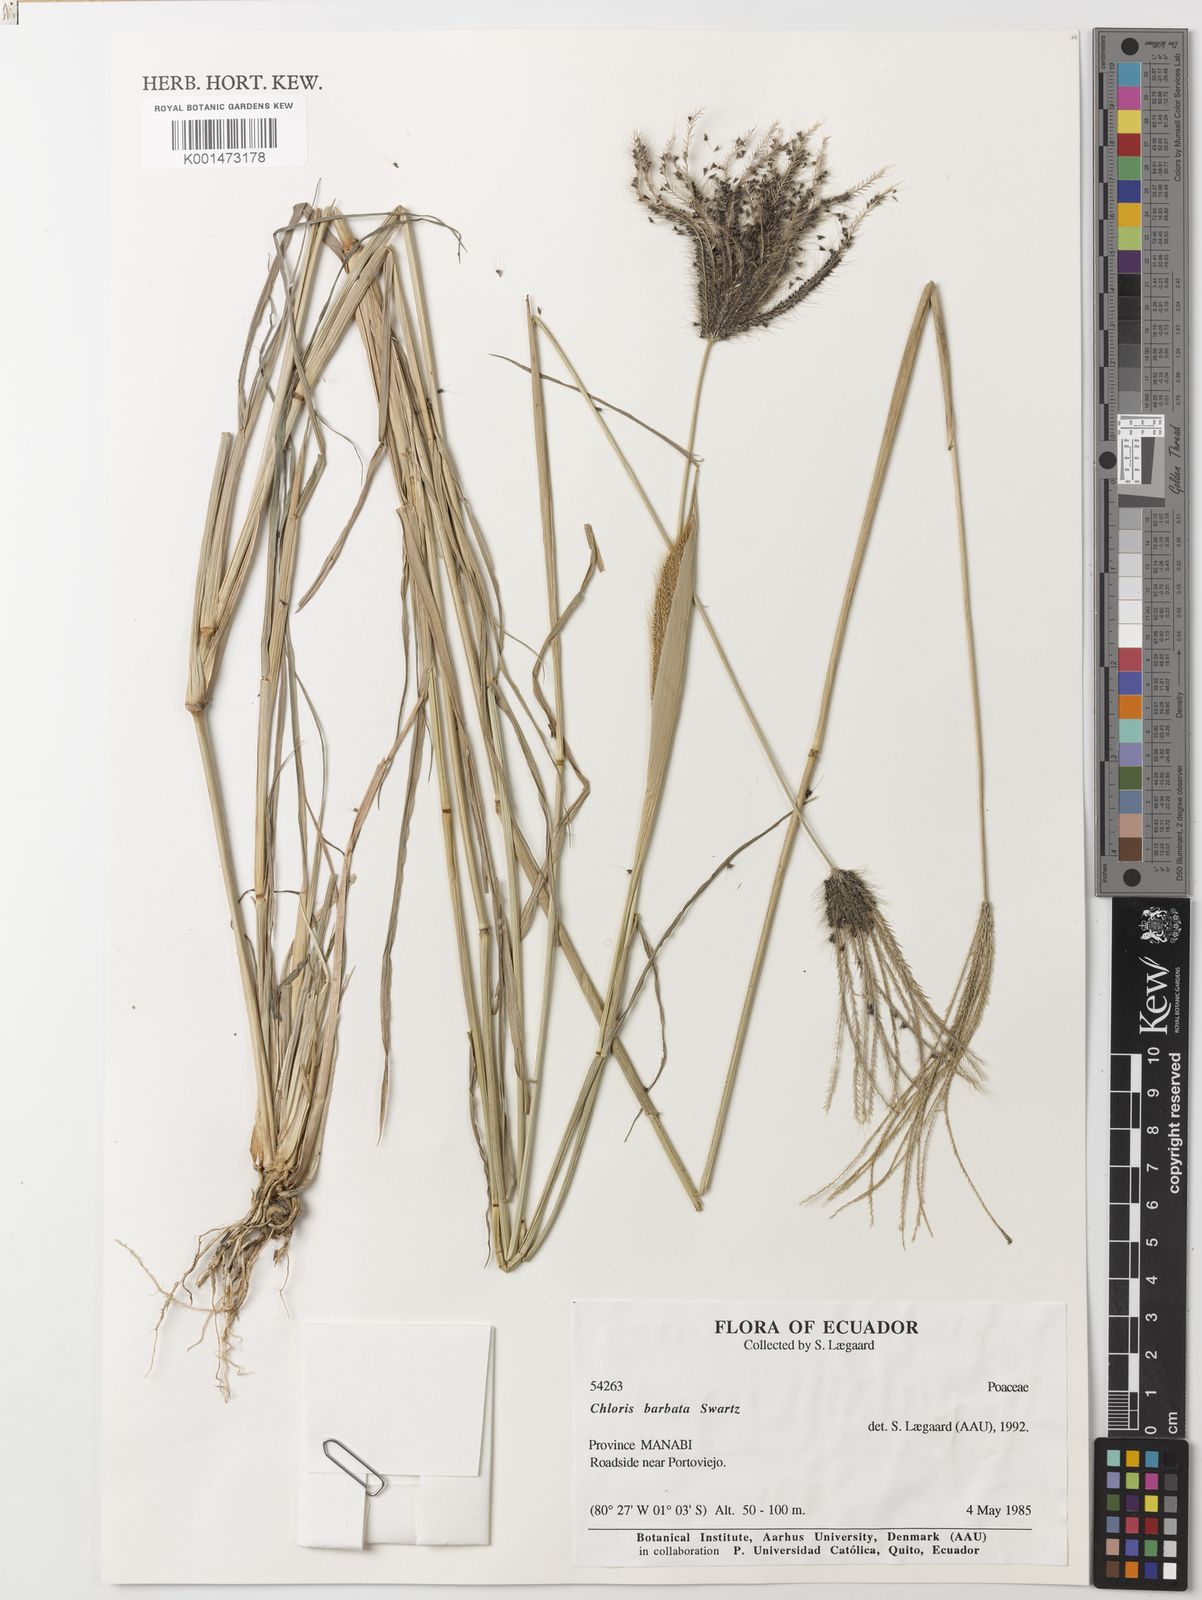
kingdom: Plantae
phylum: Tracheophyta
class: Liliopsida
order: Poales
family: Poaceae
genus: Chloris
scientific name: Chloris barbata
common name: Swollen fingergrass
